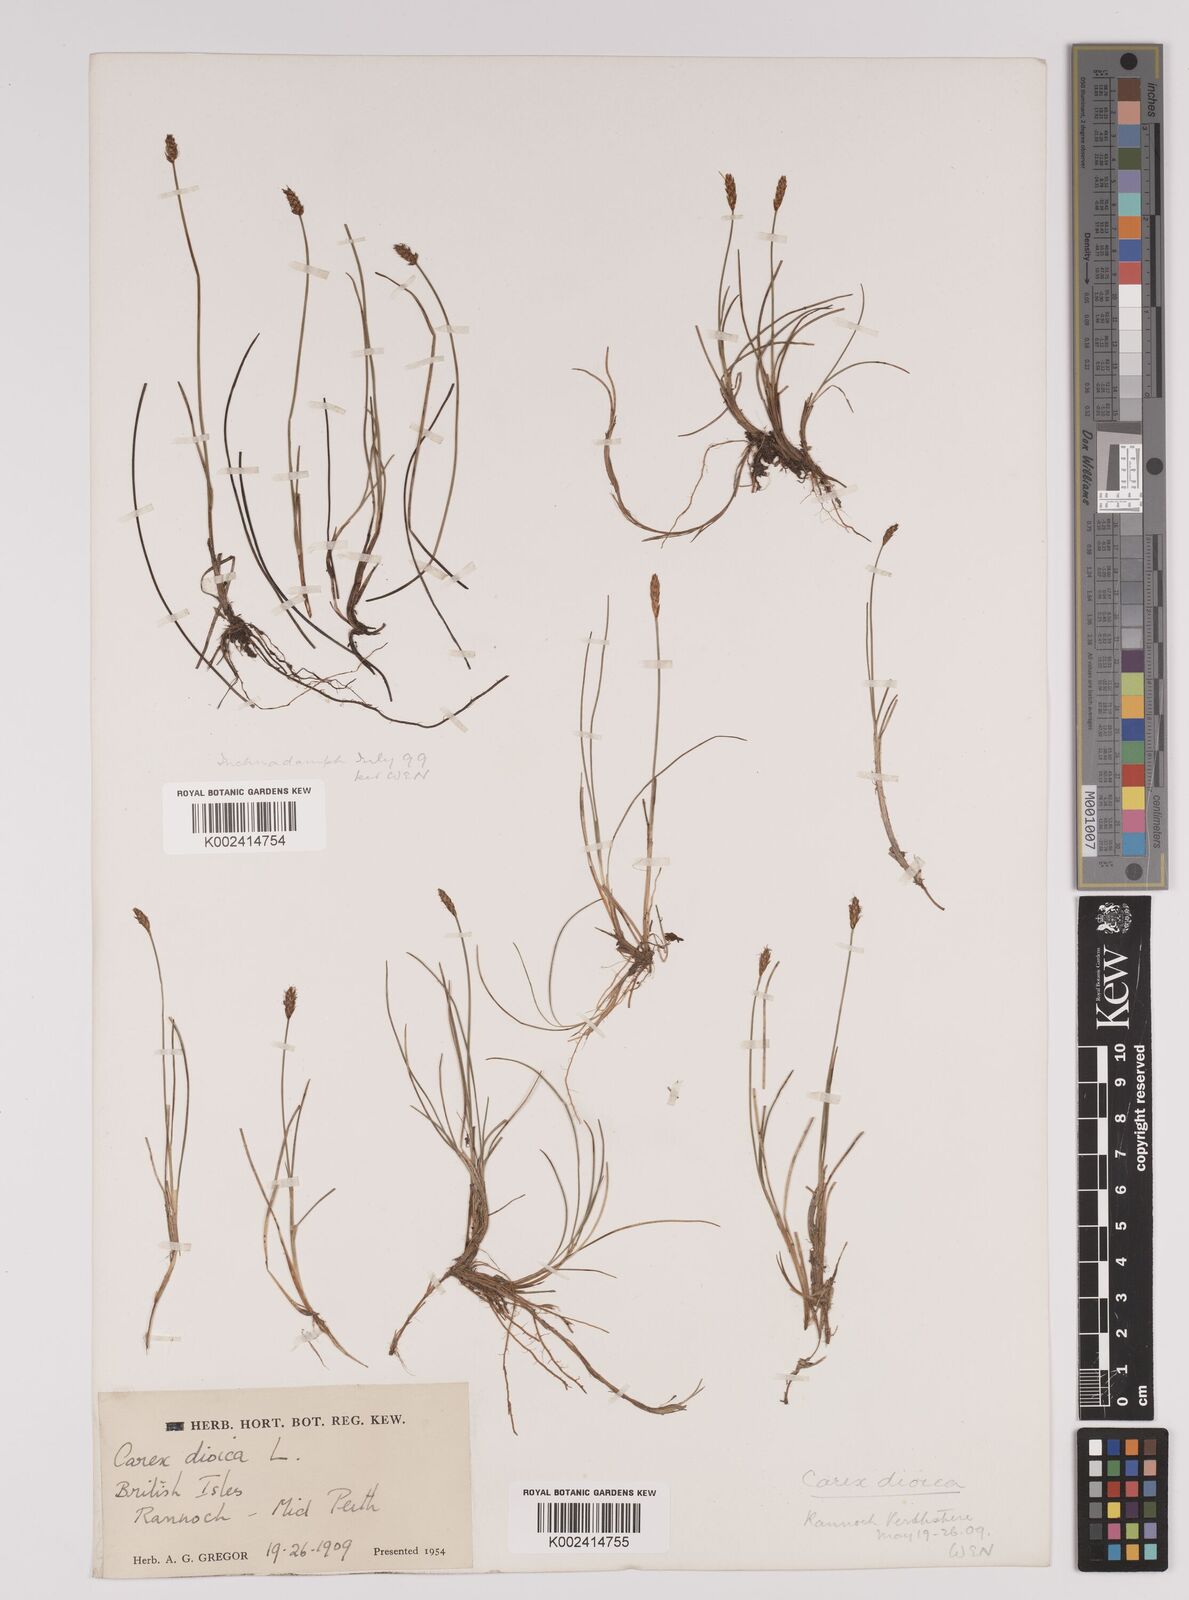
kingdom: Plantae
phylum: Tracheophyta
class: Liliopsida
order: Poales
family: Cyperaceae
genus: Carex
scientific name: Carex dioica
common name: Dioecious sedge
